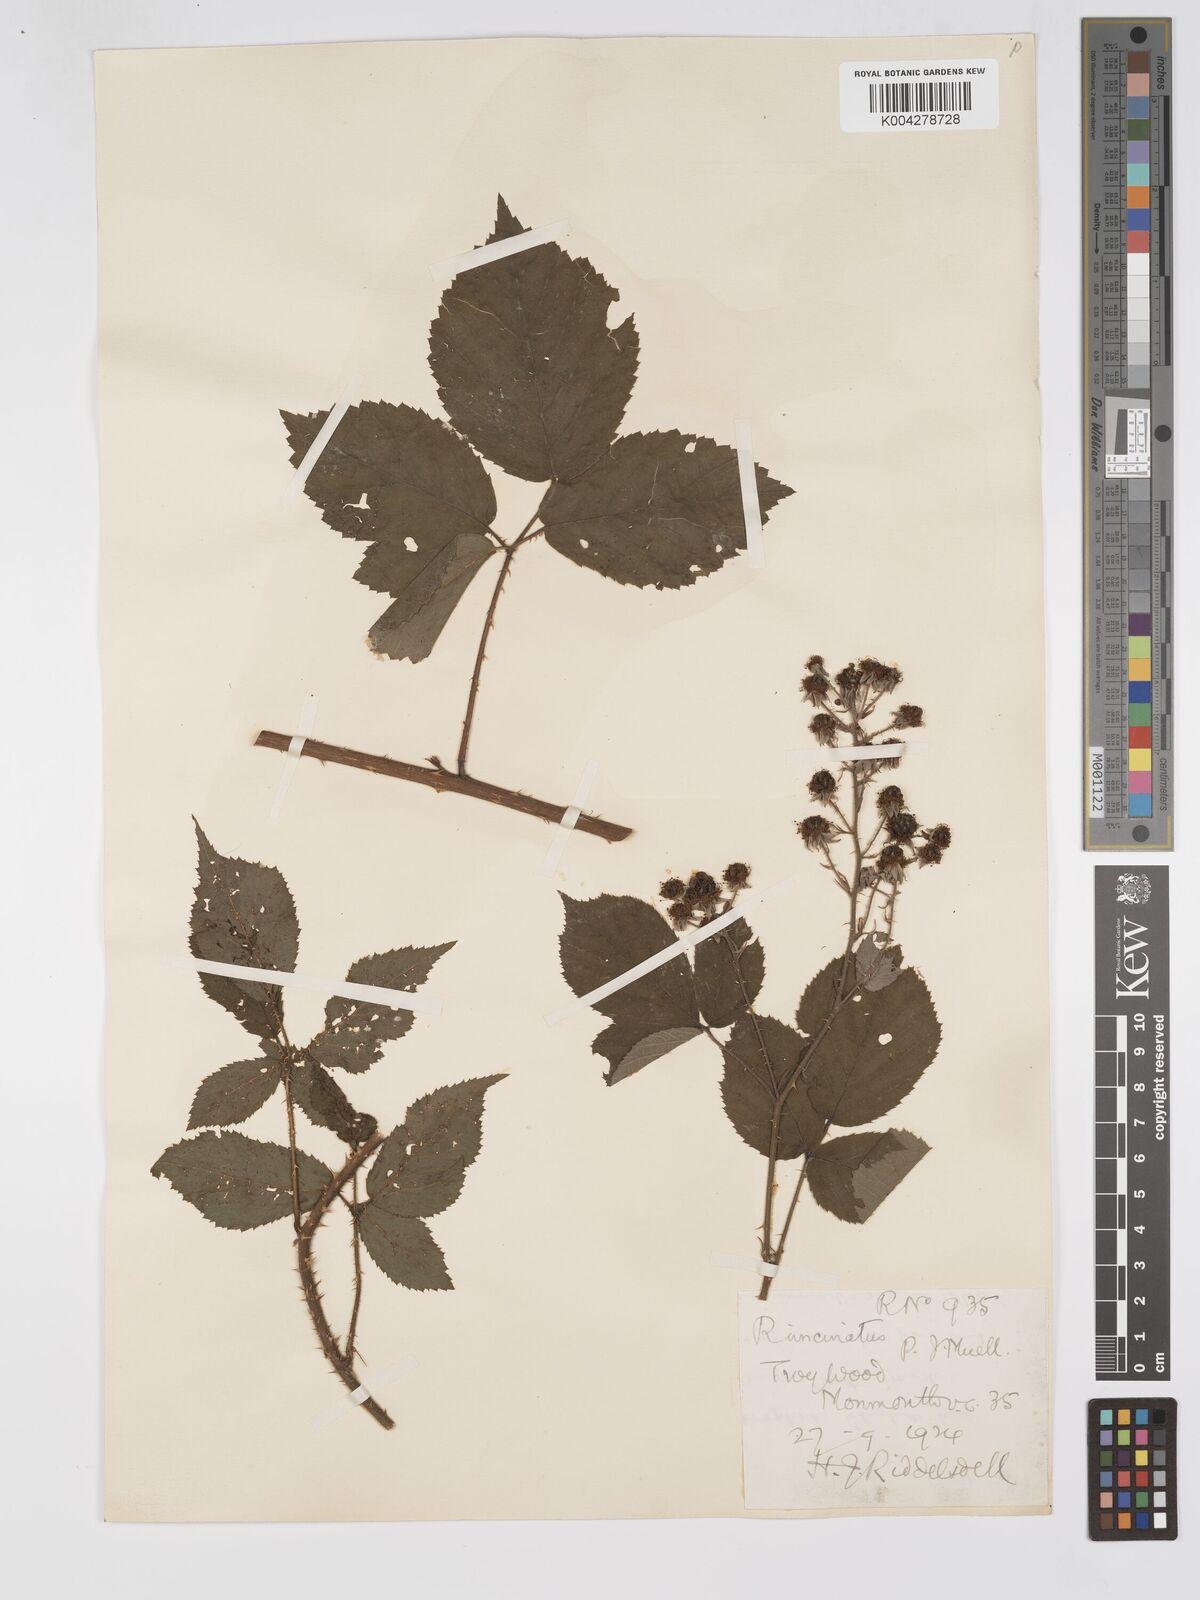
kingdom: Plantae
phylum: Tracheophyta
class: Magnoliopsida
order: Rosales
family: Rosaceae
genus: Rubus
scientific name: Rubus uncinatus
